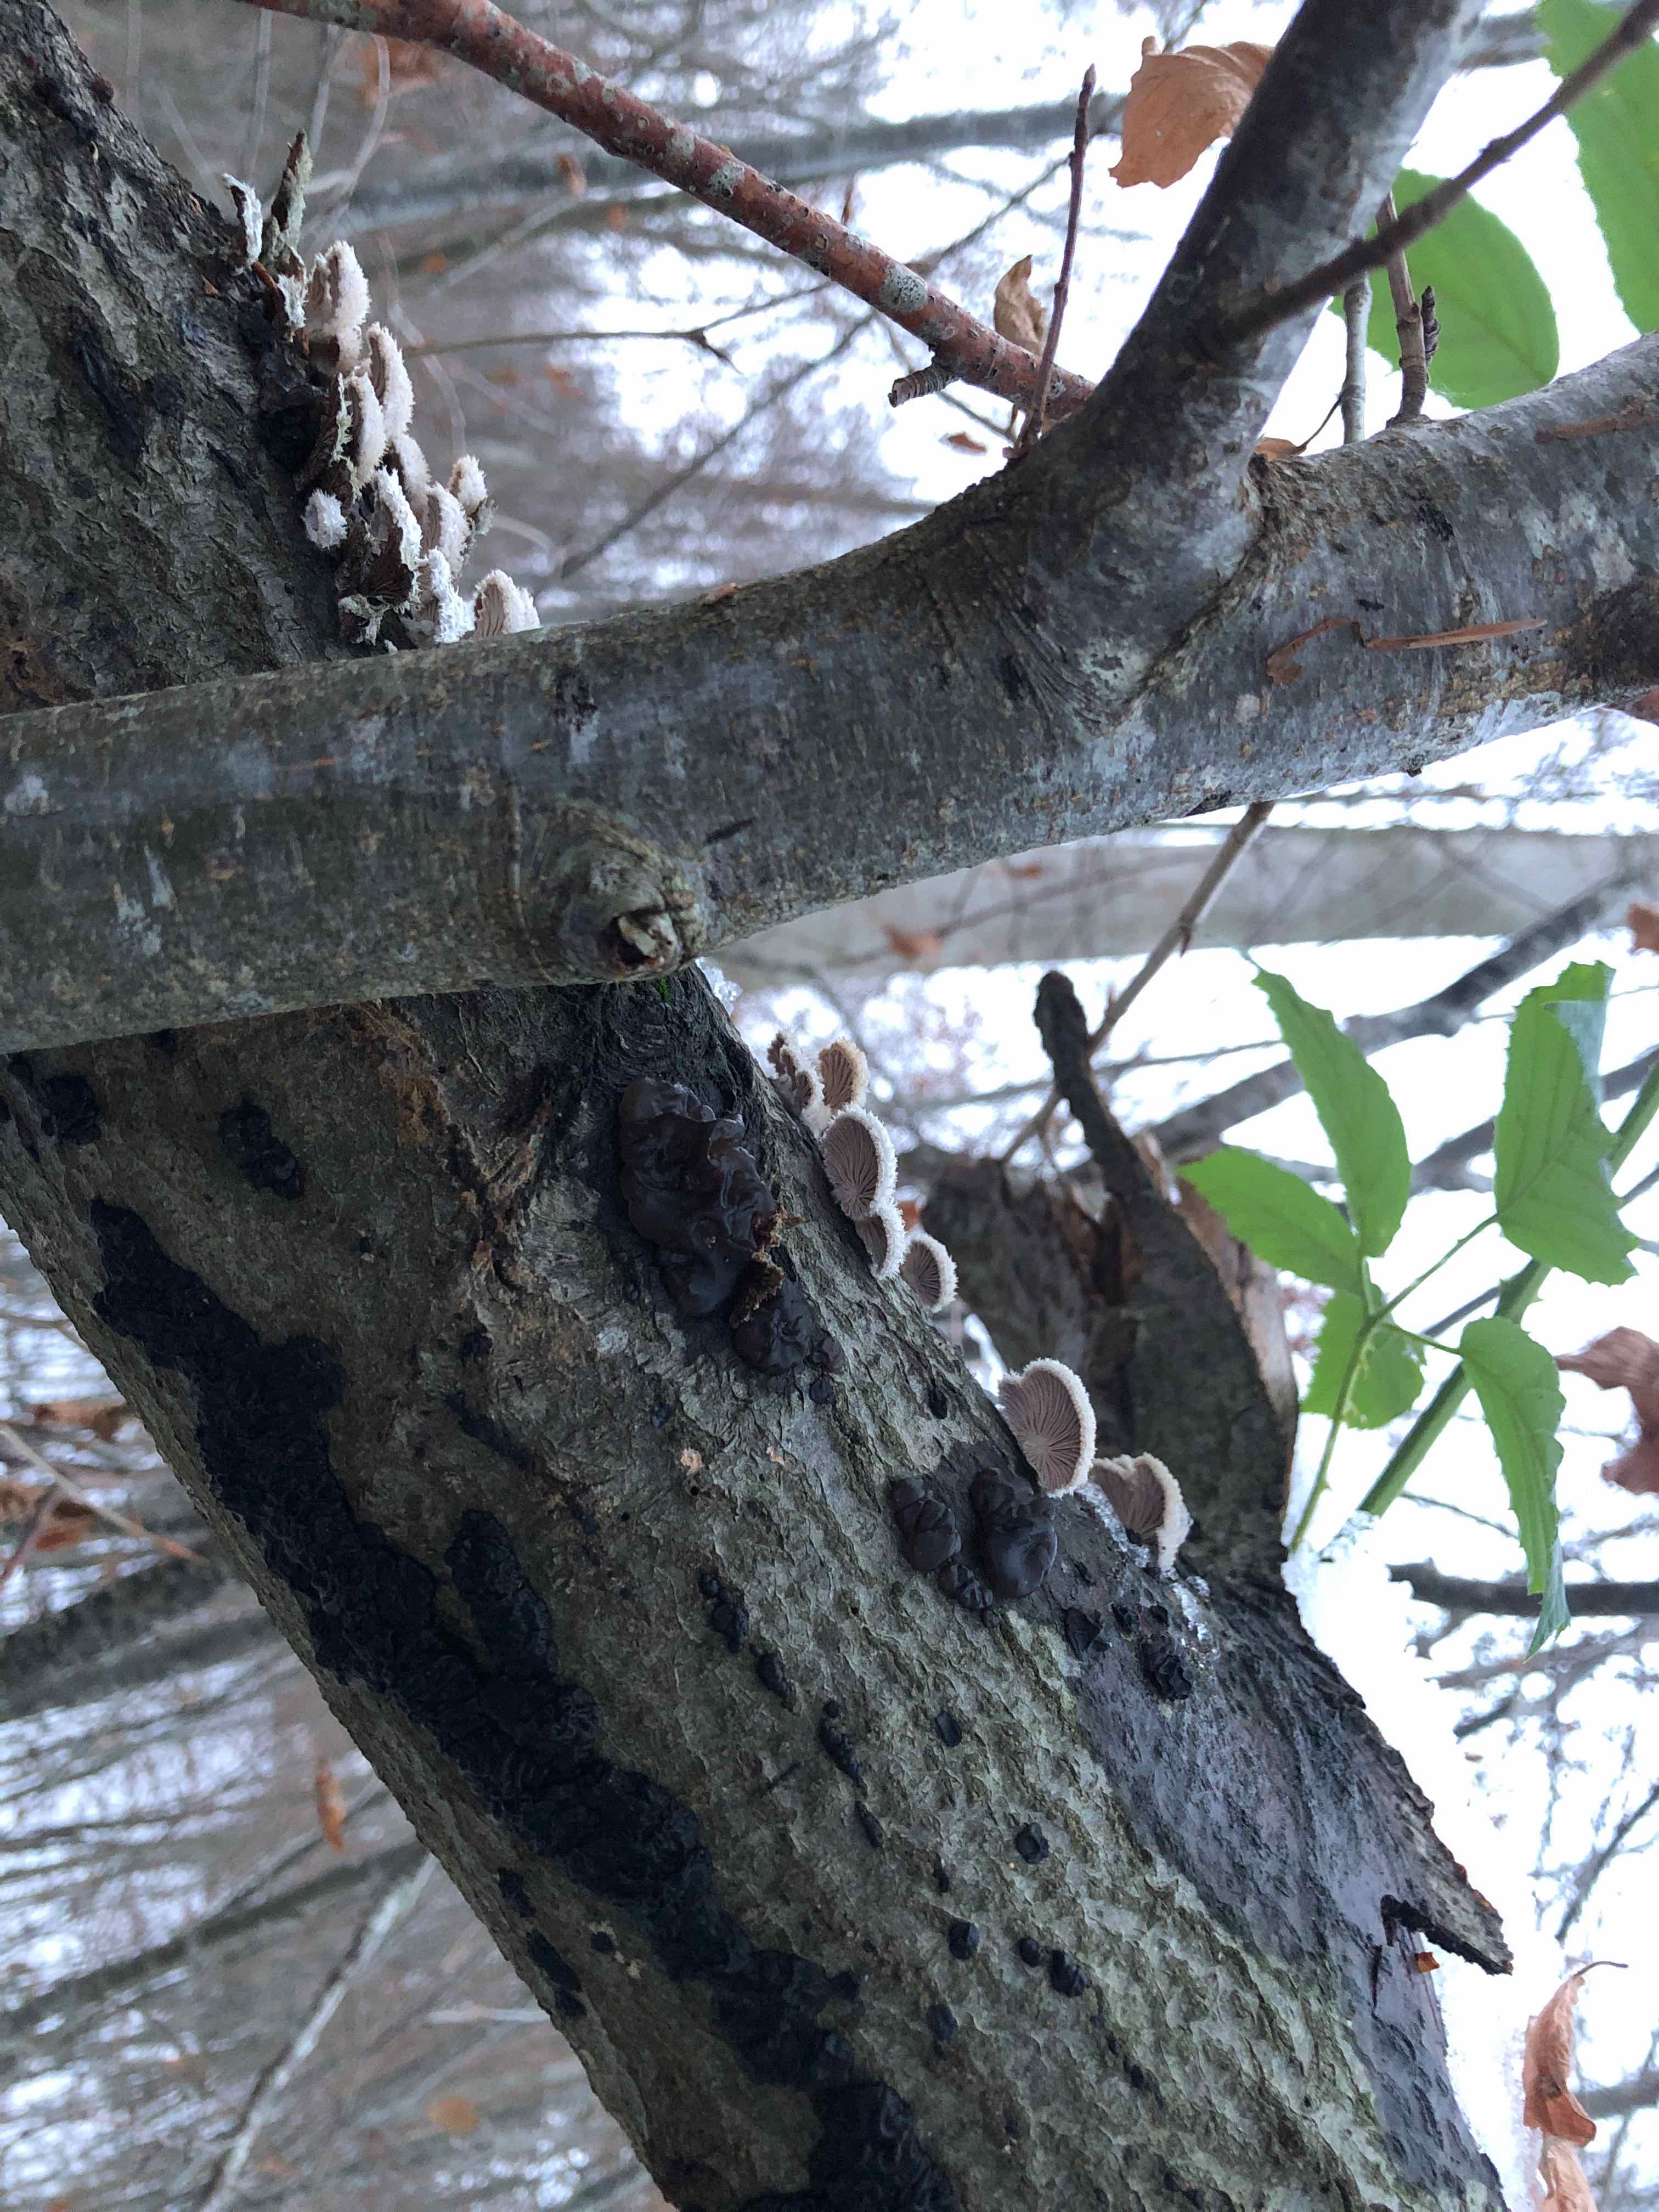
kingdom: Fungi
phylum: Basidiomycota
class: Agaricomycetes
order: Agaricales
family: Schizophyllaceae
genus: Schizophyllum
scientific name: Schizophyllum commune
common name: kløvblad
